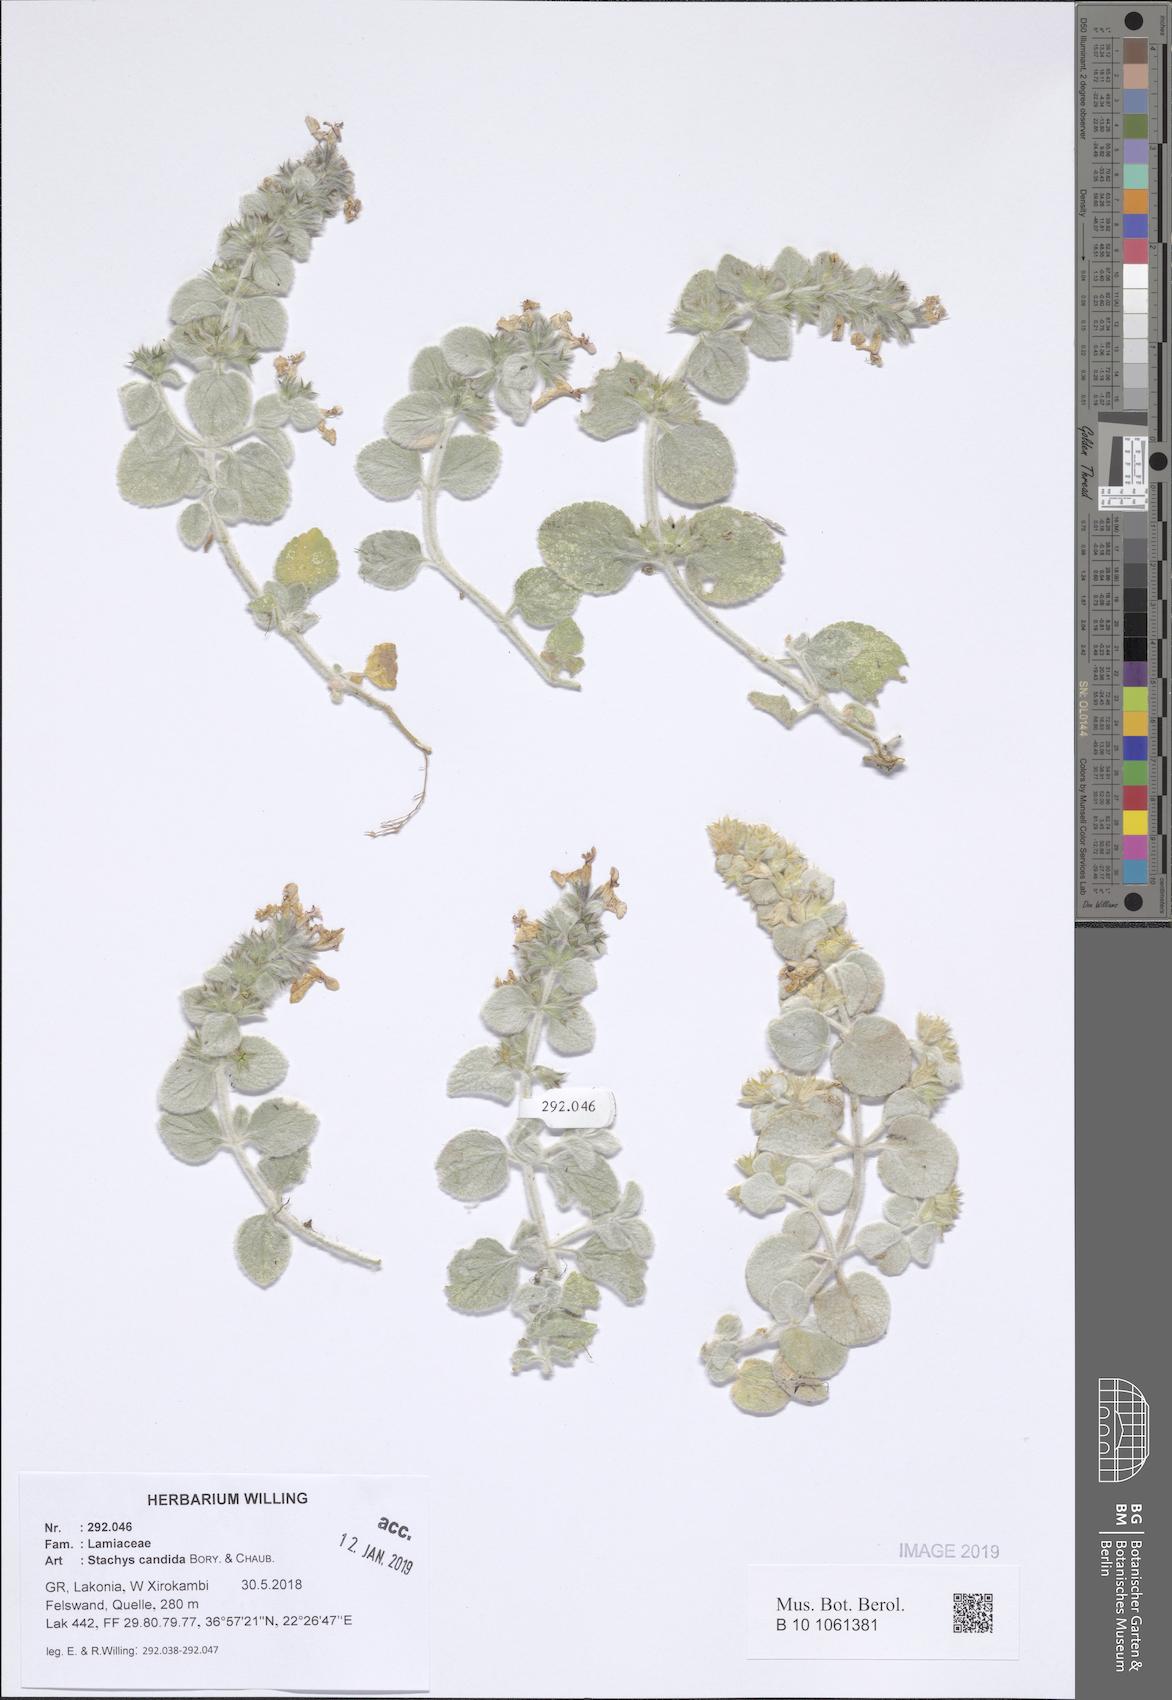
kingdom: Plantae
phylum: Tracheophyta
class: Magnoliopsida
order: Lamiales
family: Lamiaceae
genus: Stachys
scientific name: Stachys candida
